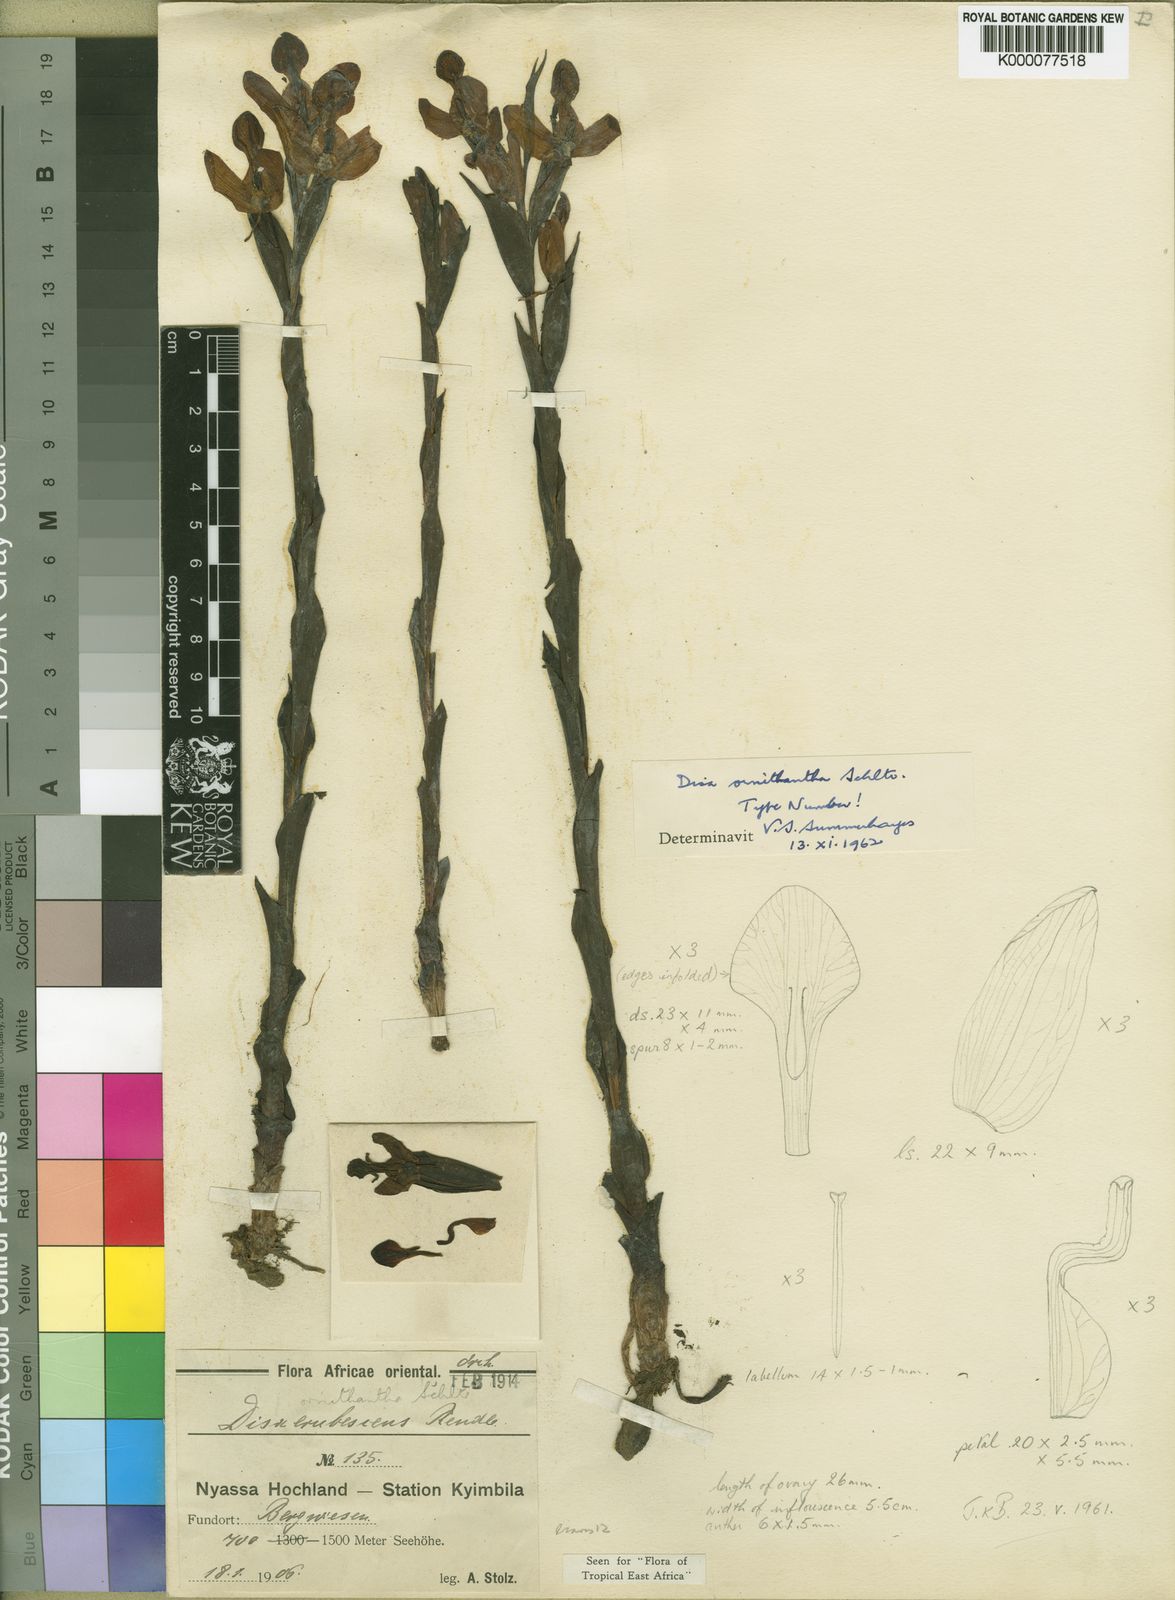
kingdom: Plantae
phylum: Tracheophyta
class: Liliopsida
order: Asparagales
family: Orchidaceae
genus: Disa
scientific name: Disa ornithantha
